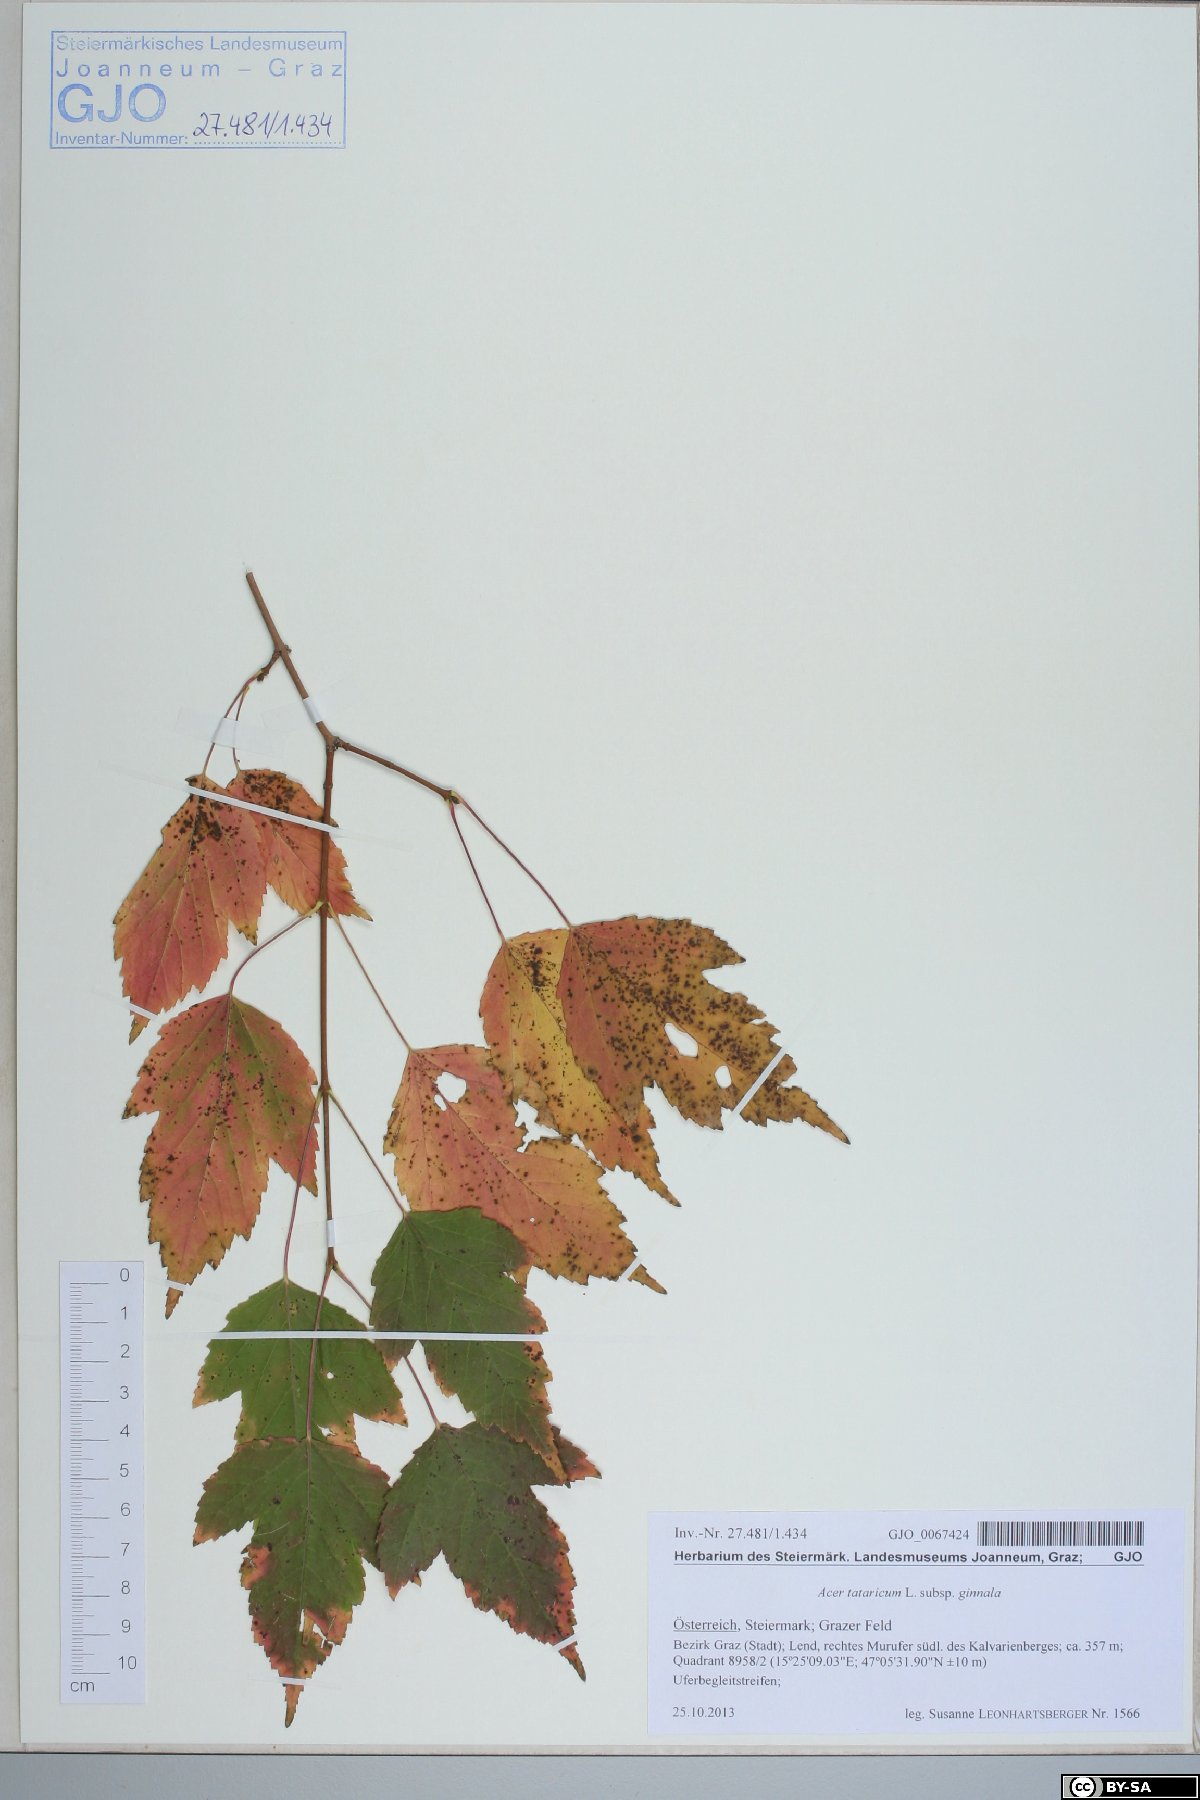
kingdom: Plantae
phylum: Tracheophyta
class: Magnoliopsida
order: Sapindales
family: Sapindaceae
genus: Acer
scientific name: Acer tataricum
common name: Tartar maple
